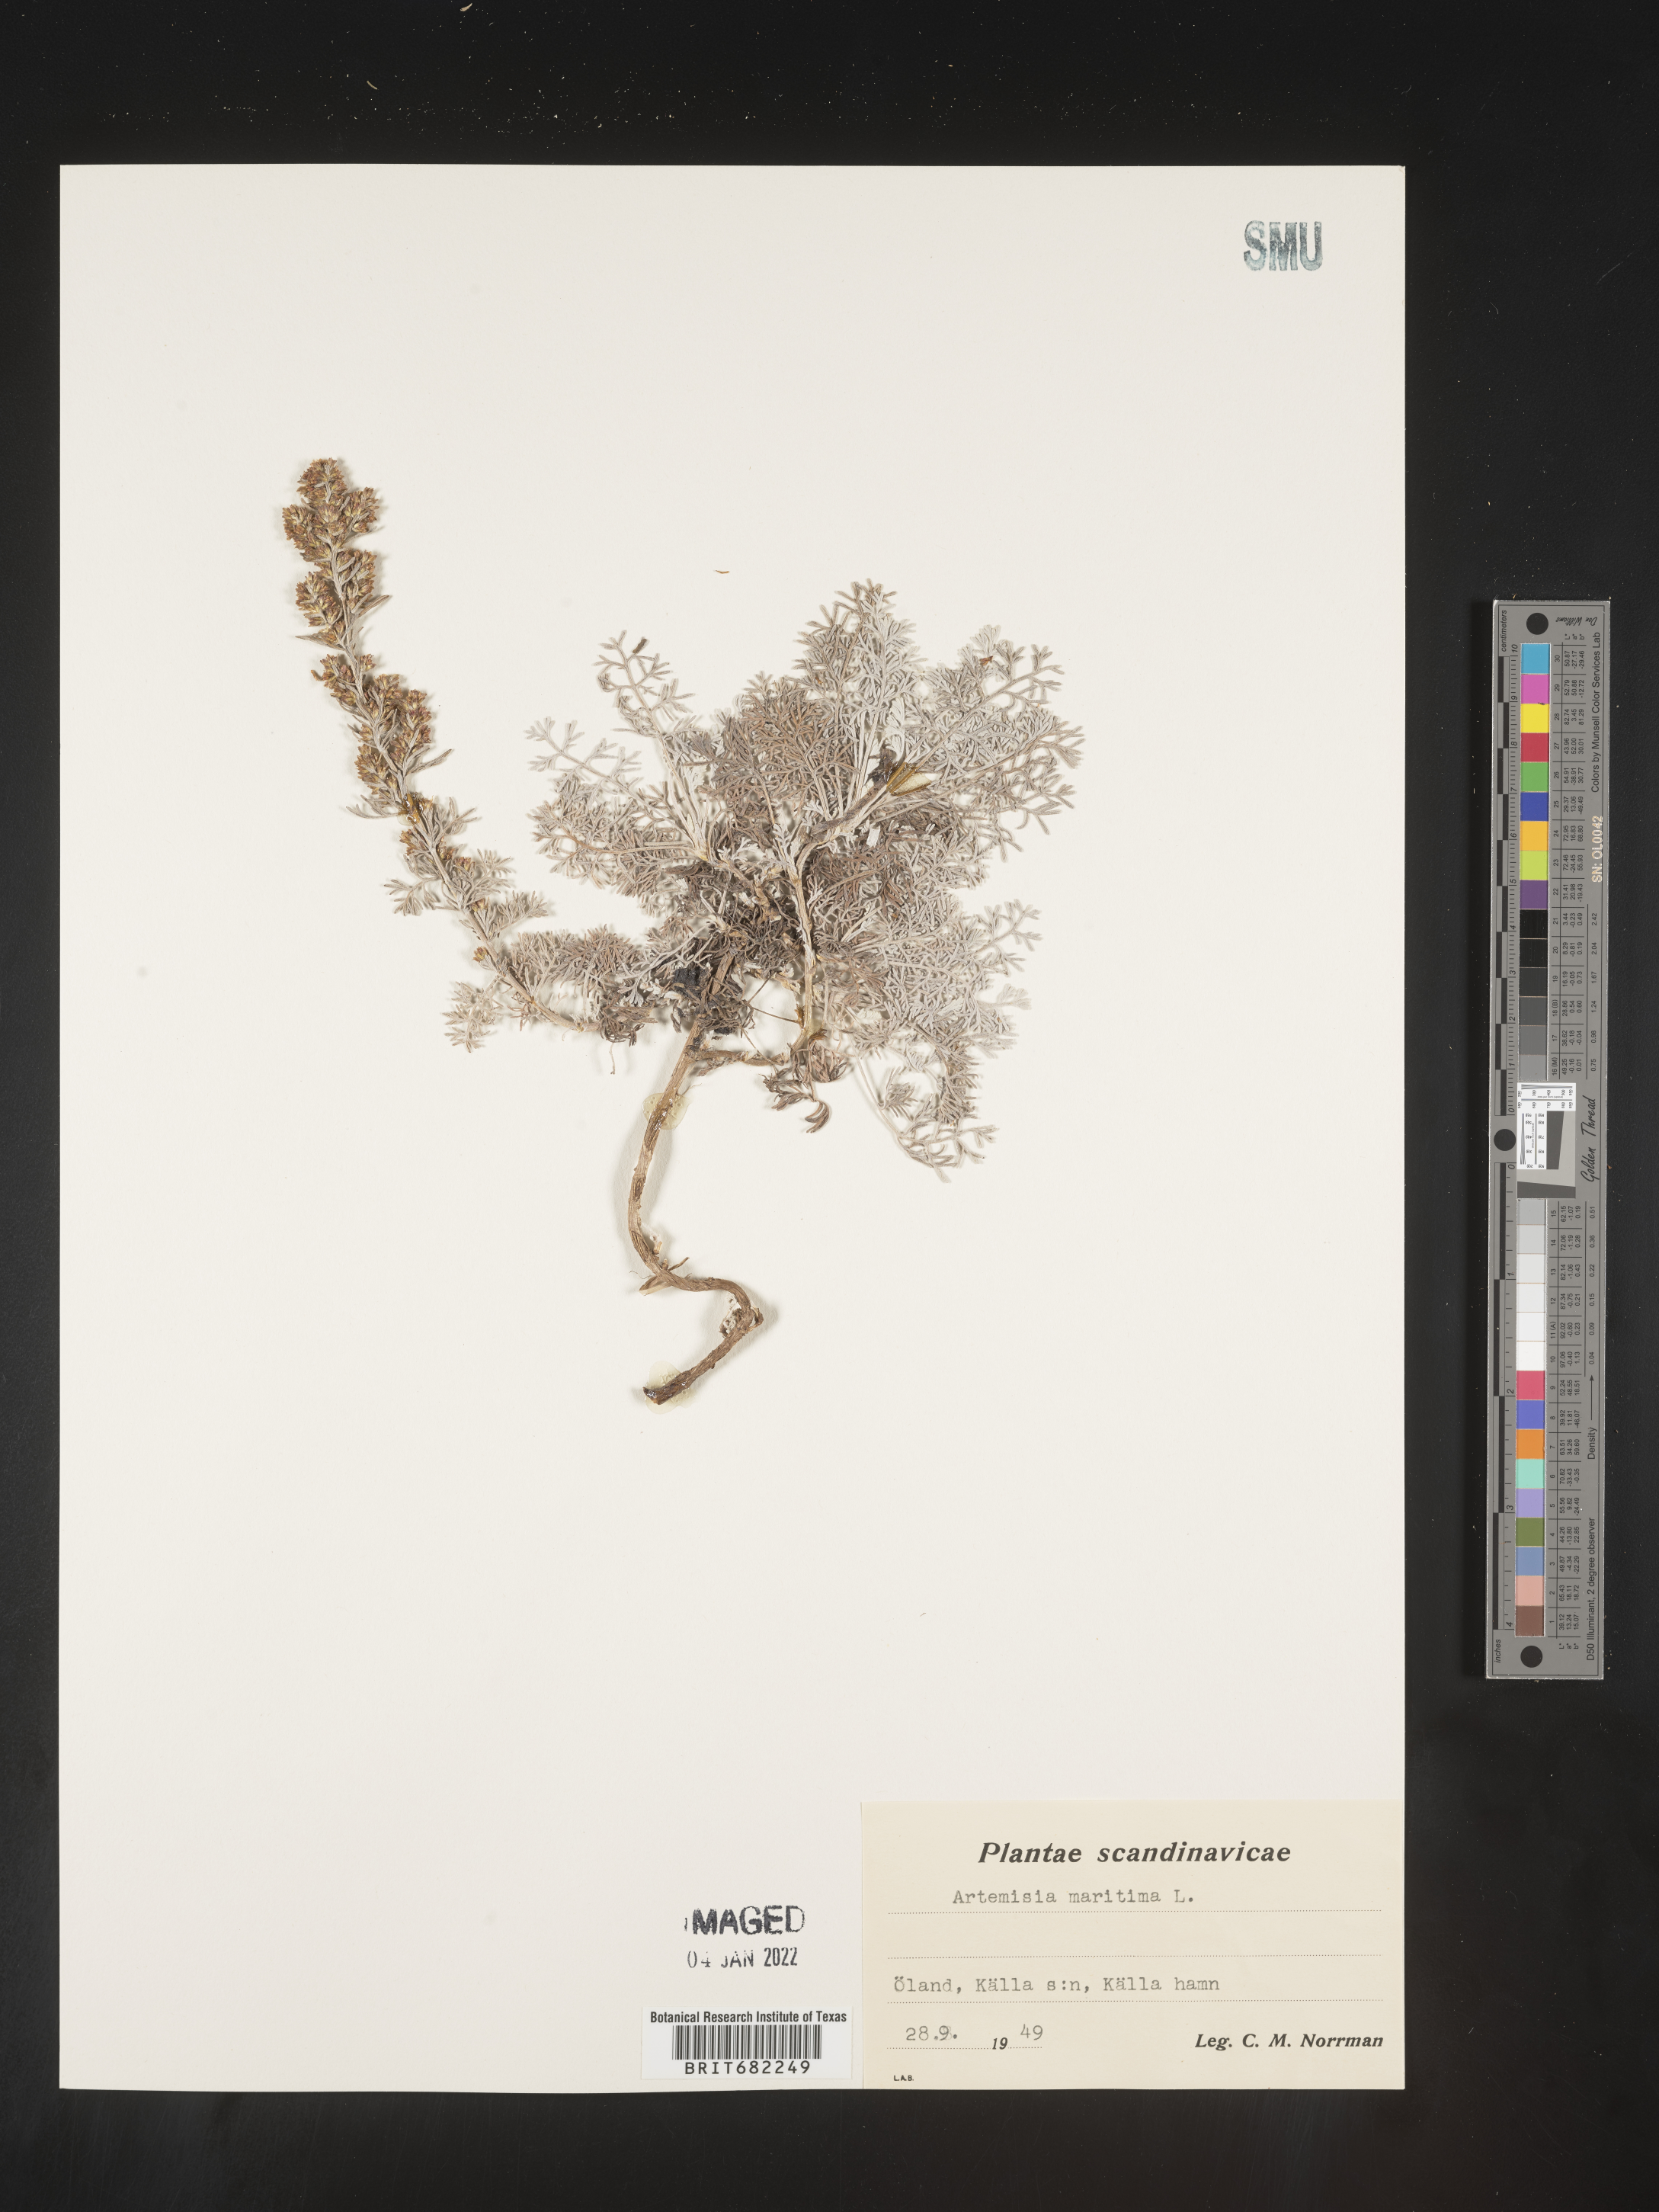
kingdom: Plantae
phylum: Tracheophyta
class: Magnoliopsida
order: Asterales
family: Asteraceae
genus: Artemisia
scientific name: Artemisia
